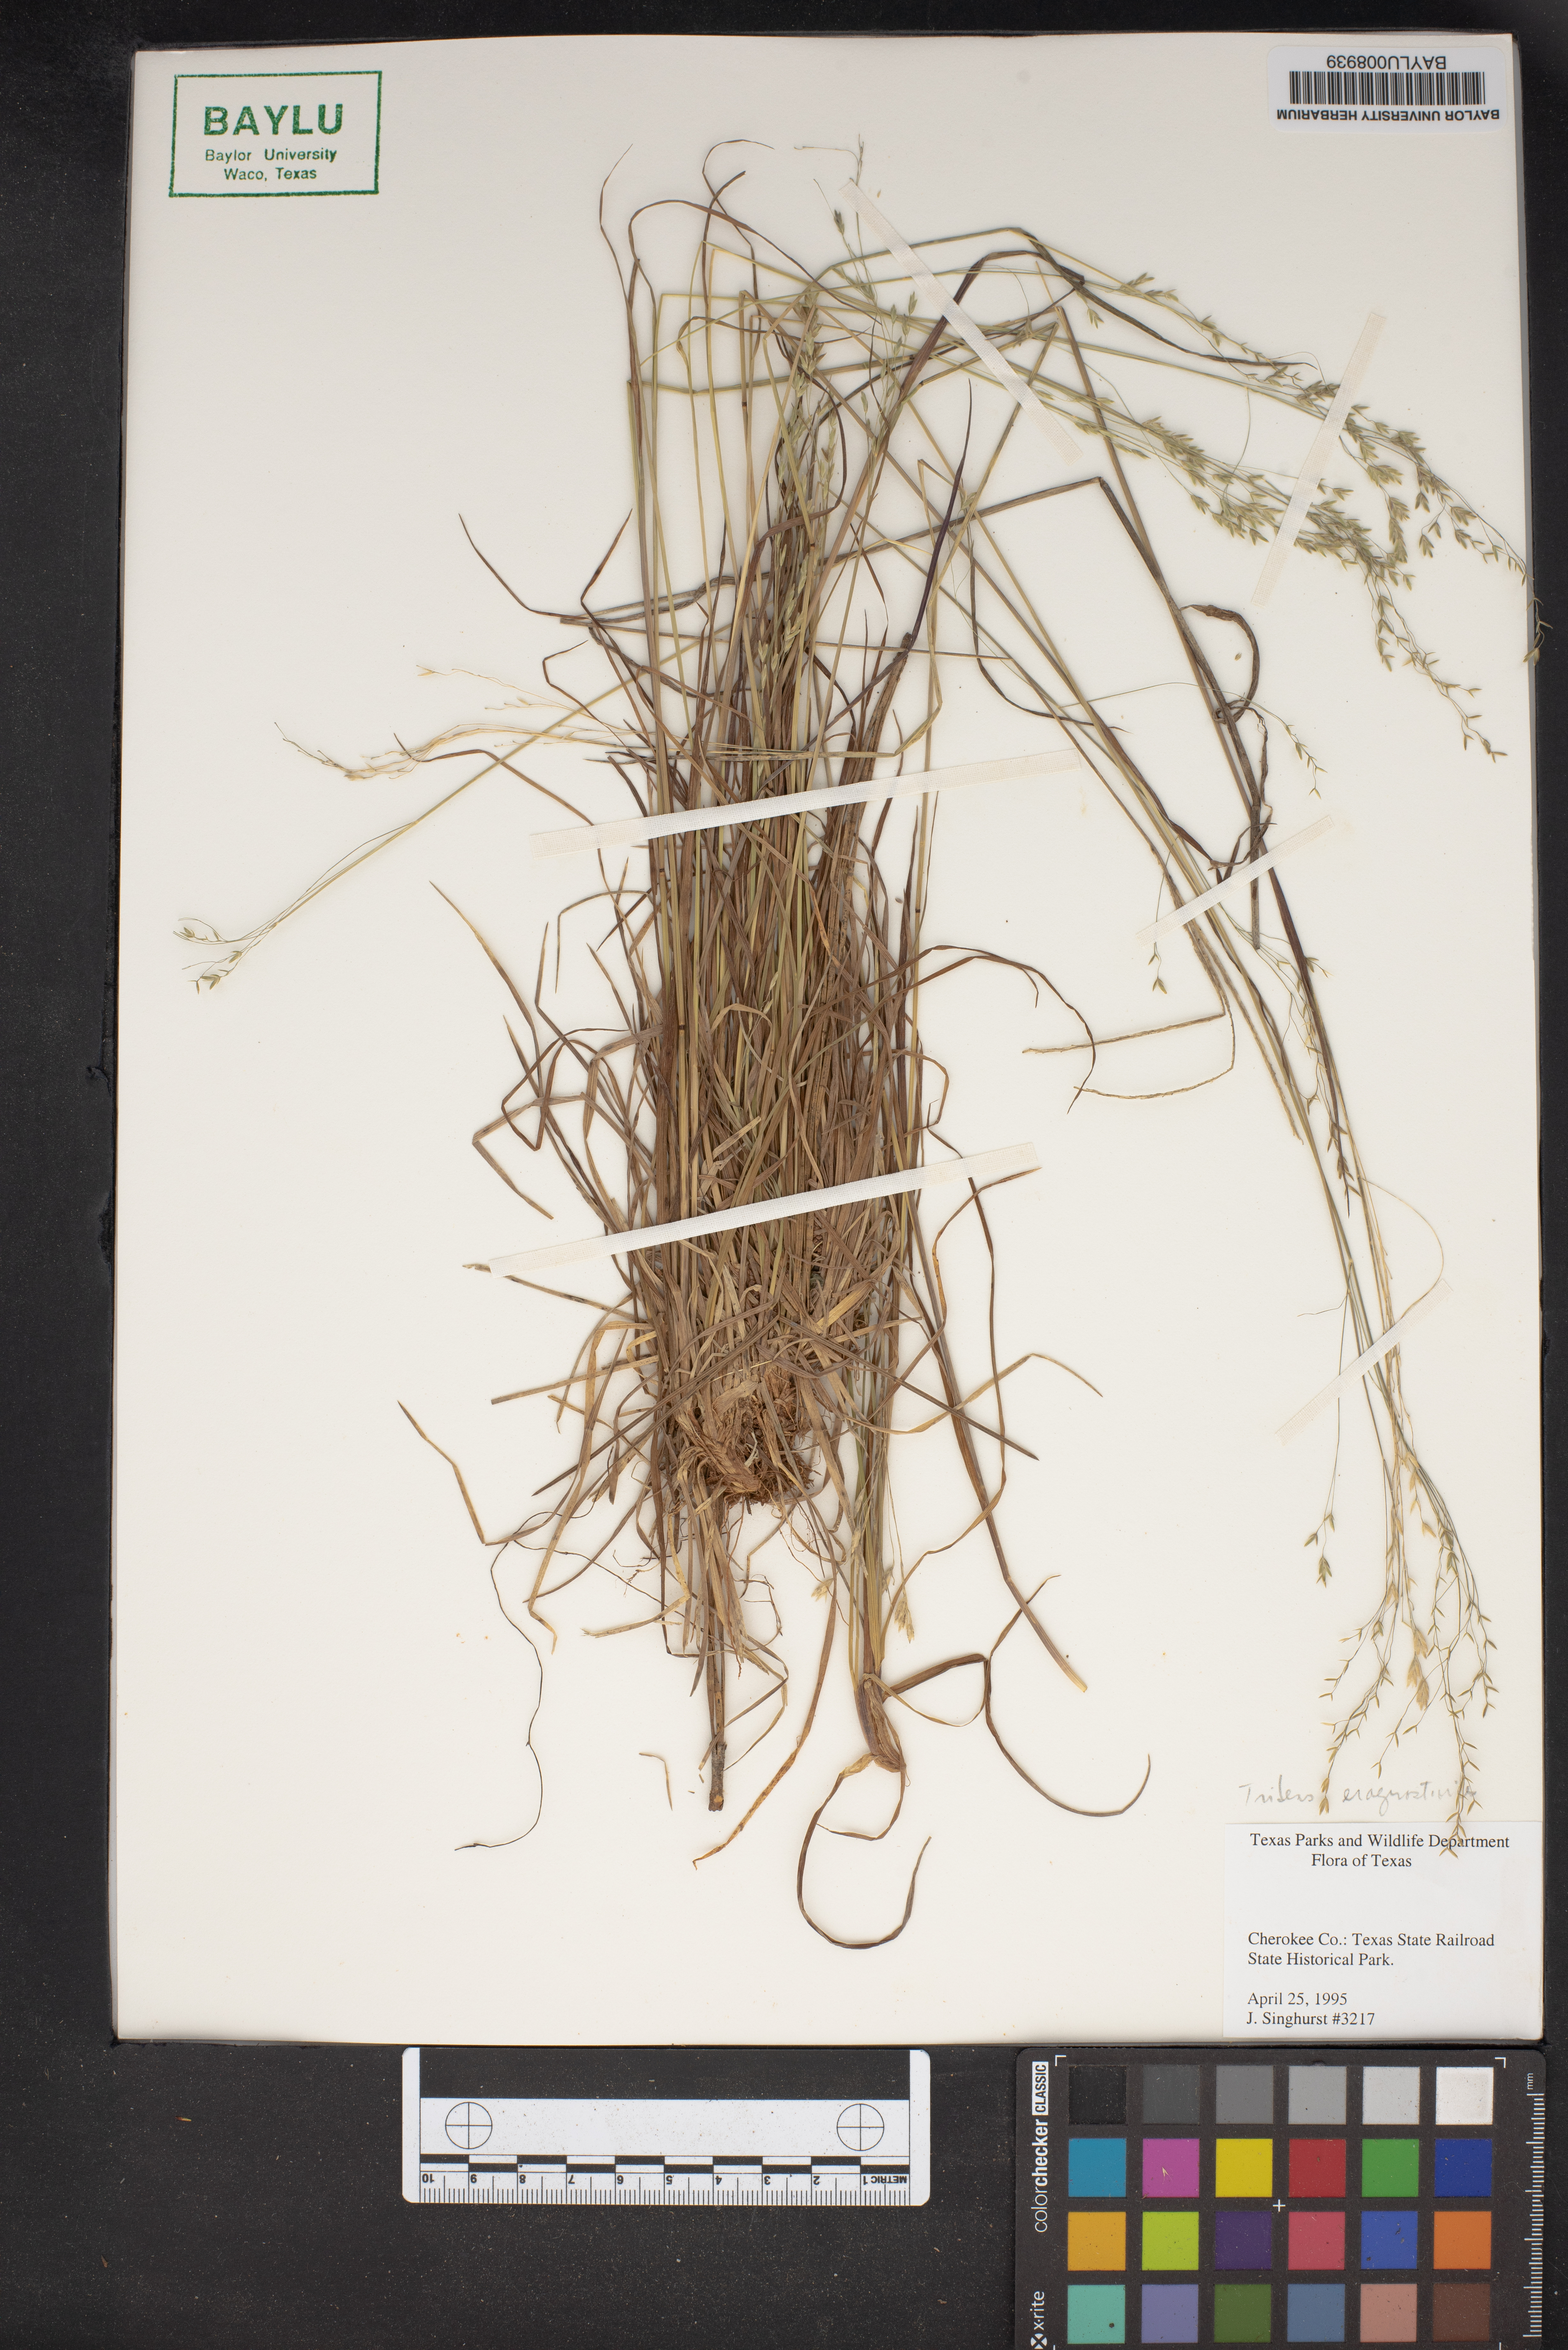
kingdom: Plantae
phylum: Tracheophyta
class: Liliopsida
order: Poales
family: Poaceae
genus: Triplasiella
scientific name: Triplasiella eragrostoides
